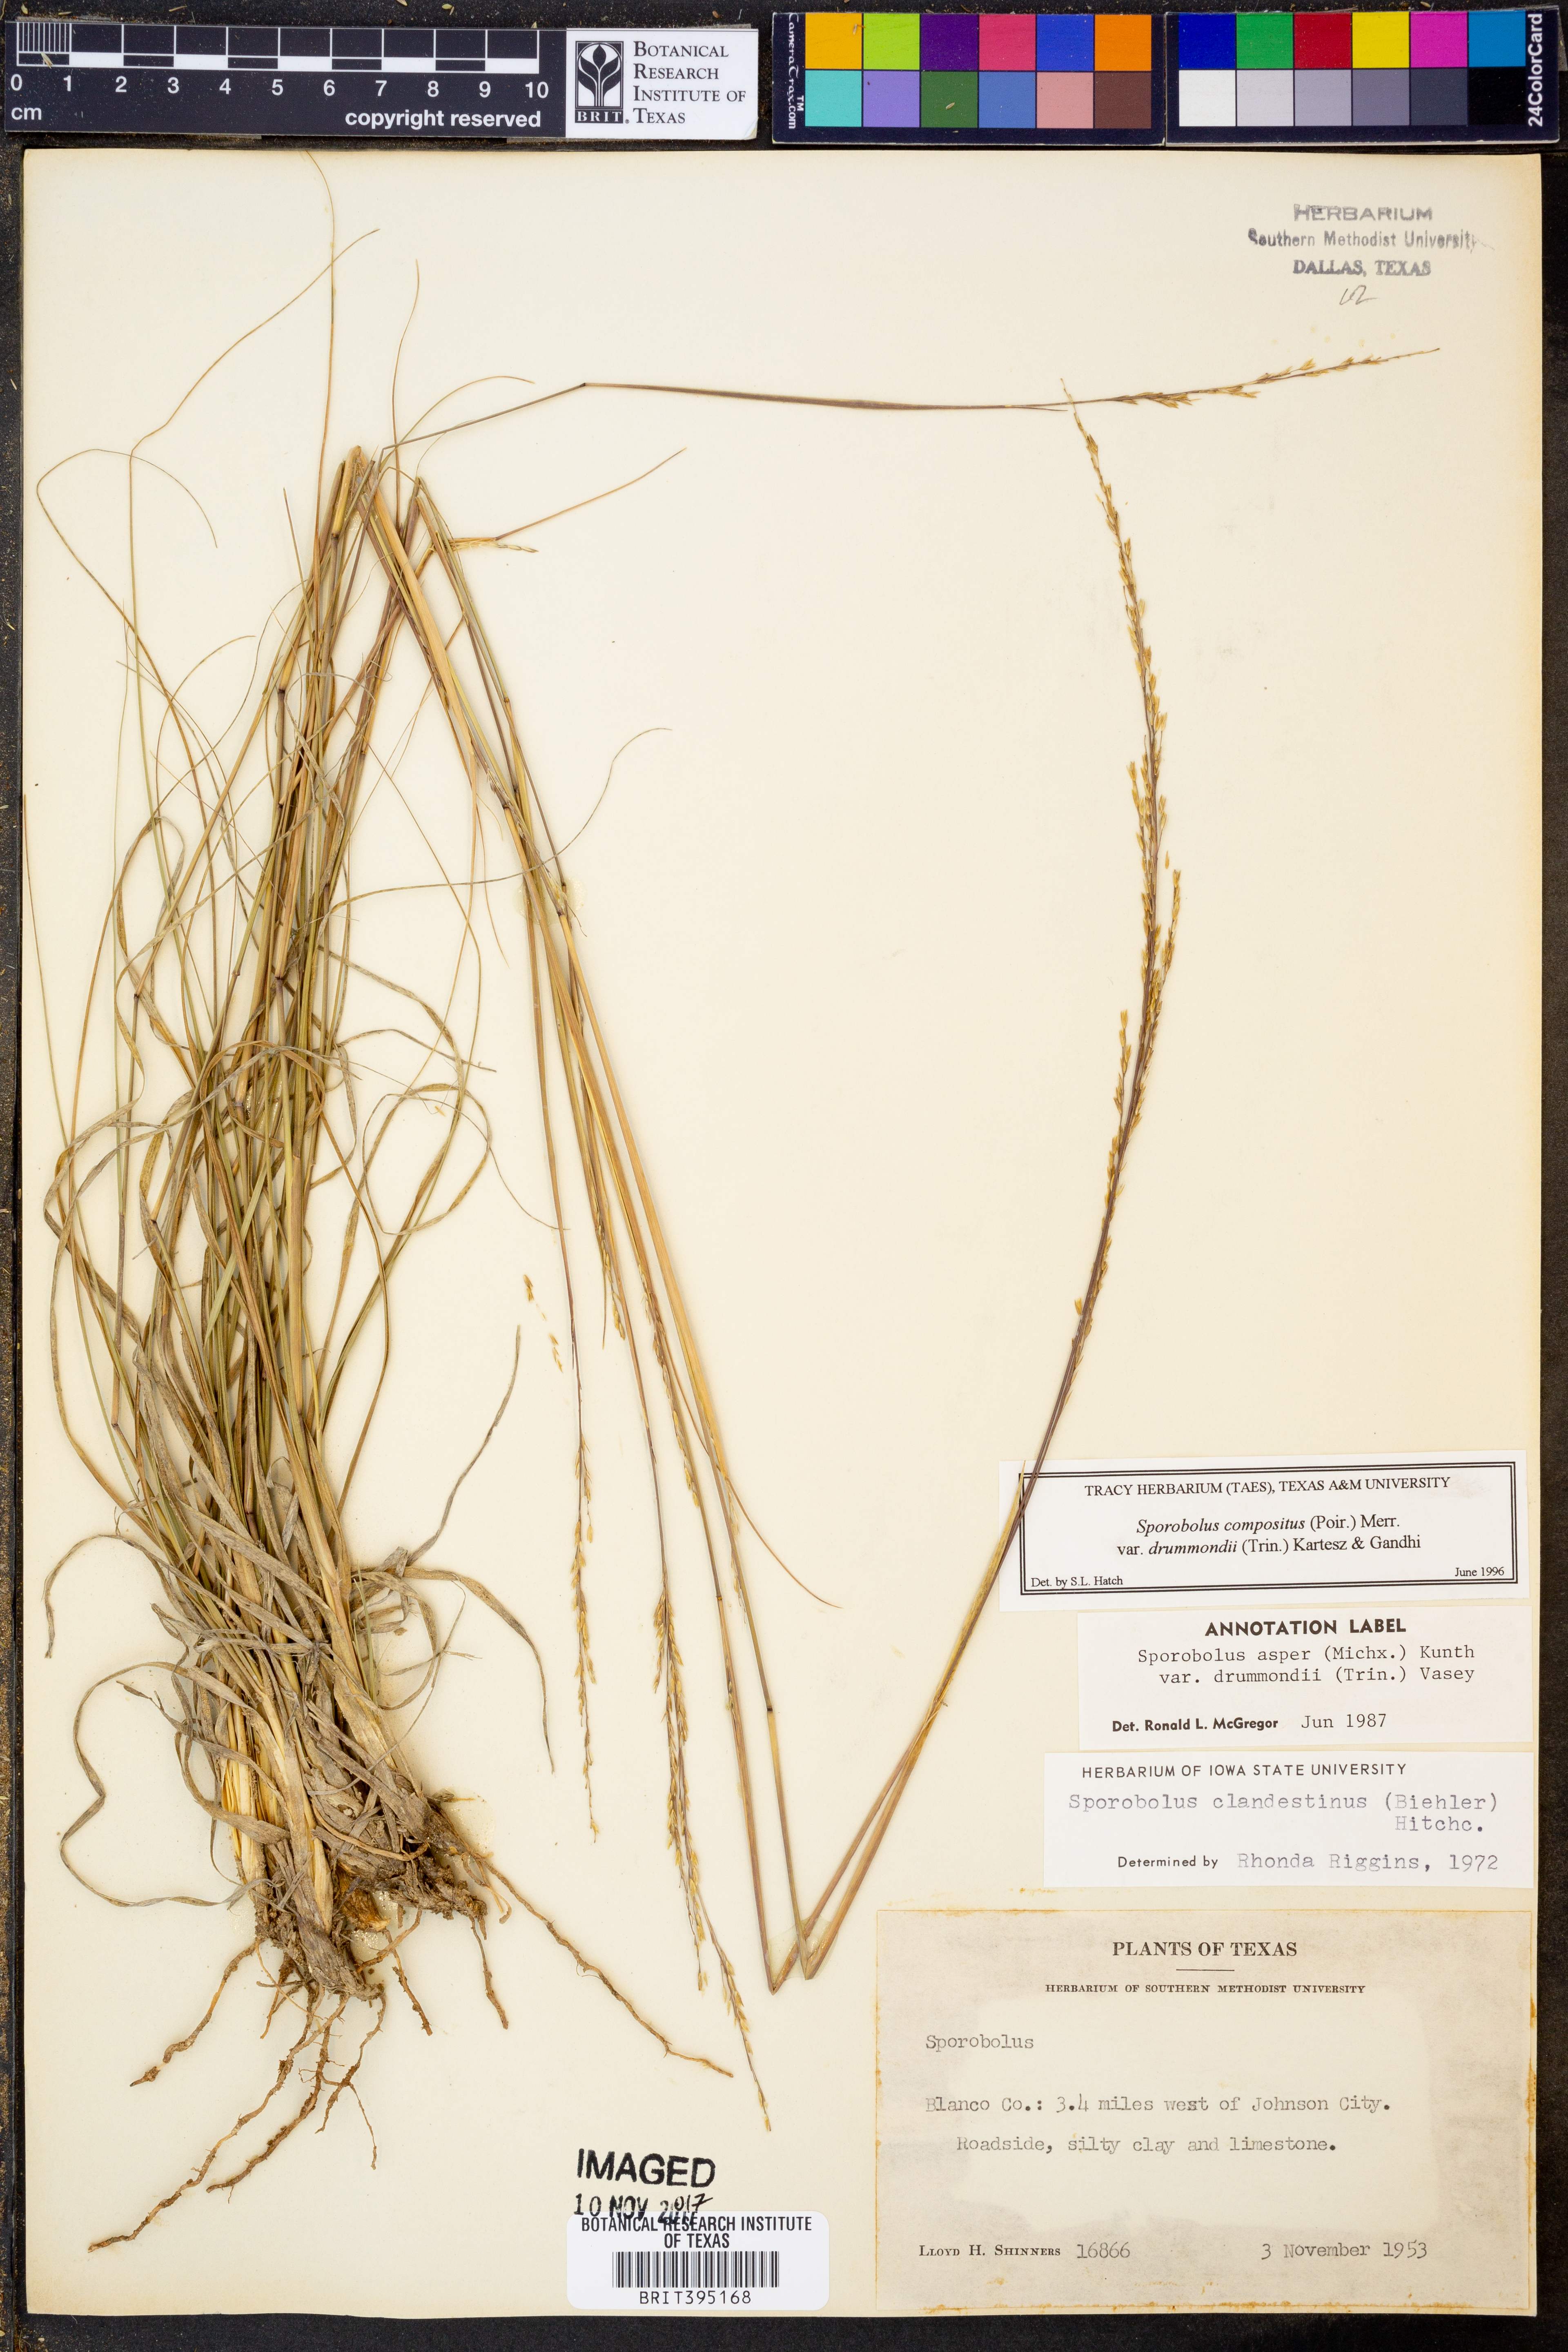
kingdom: Plantae
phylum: Tracheophyta
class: Liliopsida
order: Poales
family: Poaceae
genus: Sporobolus
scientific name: Sporobolus compositus
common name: Rough dropseed
